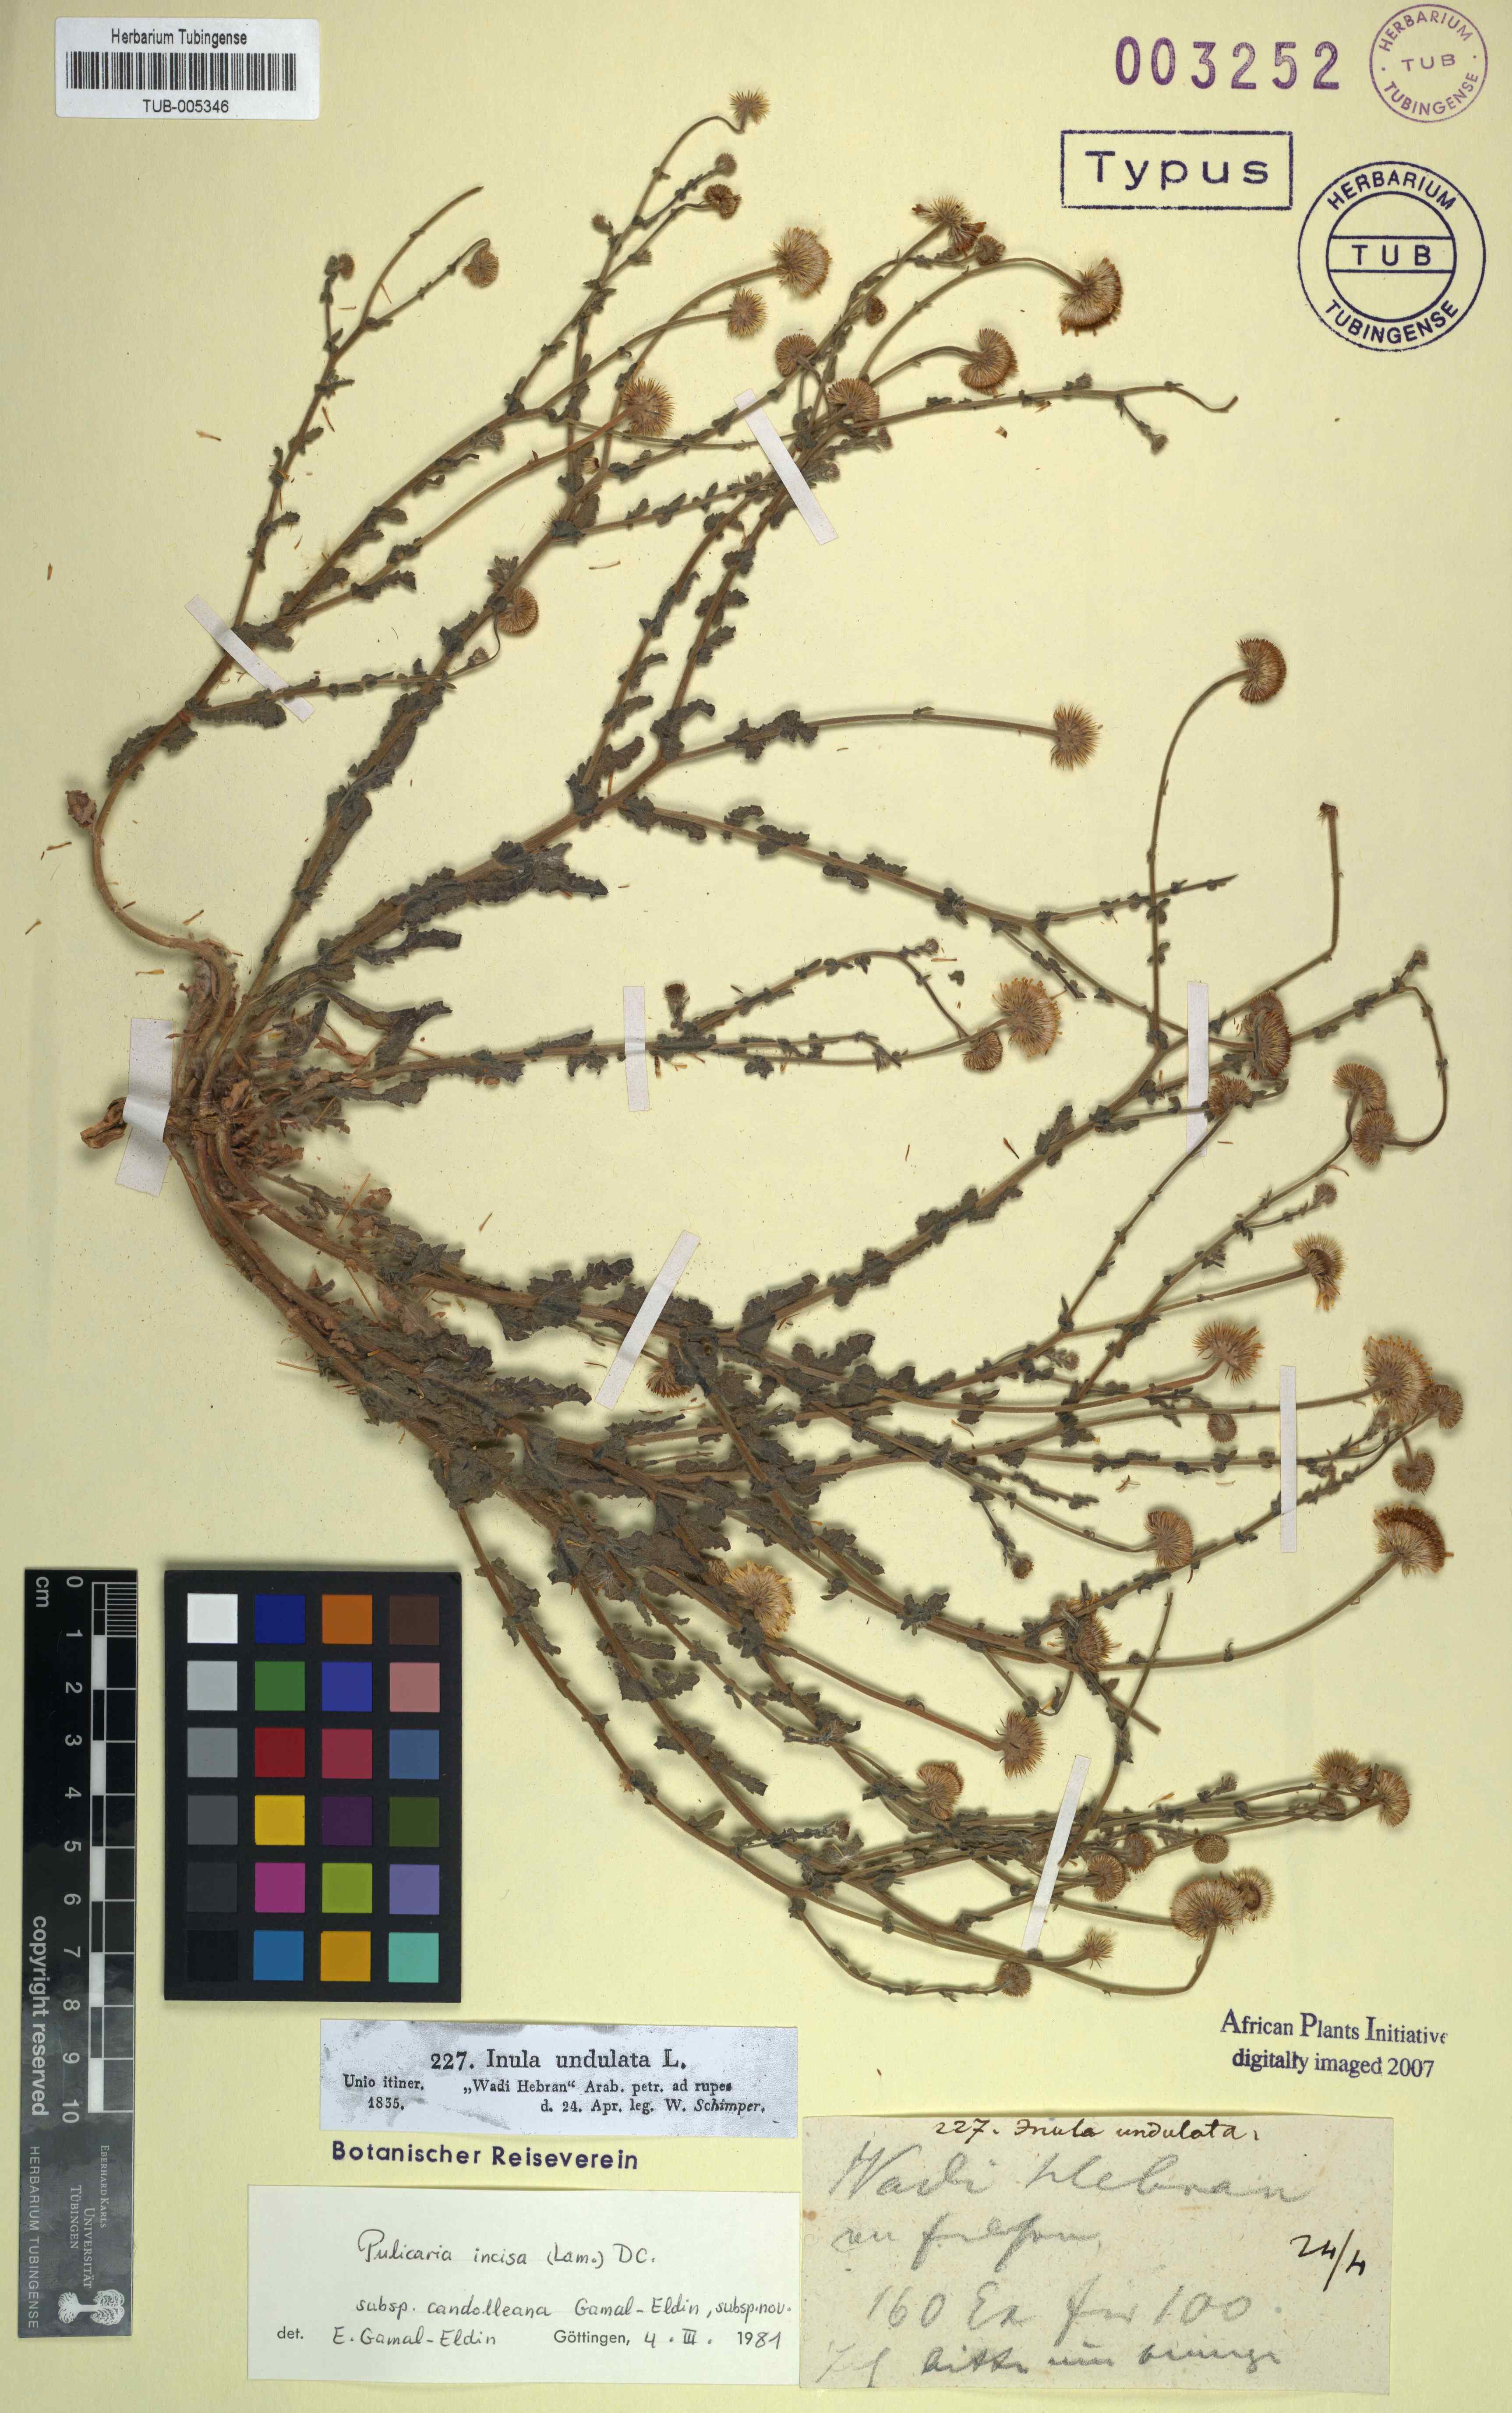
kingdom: Plantae
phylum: Tracheophyta
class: Magnoliopsida
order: Asterales
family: Asteraceae
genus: Pulicaria
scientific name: Pulicaria incisa
